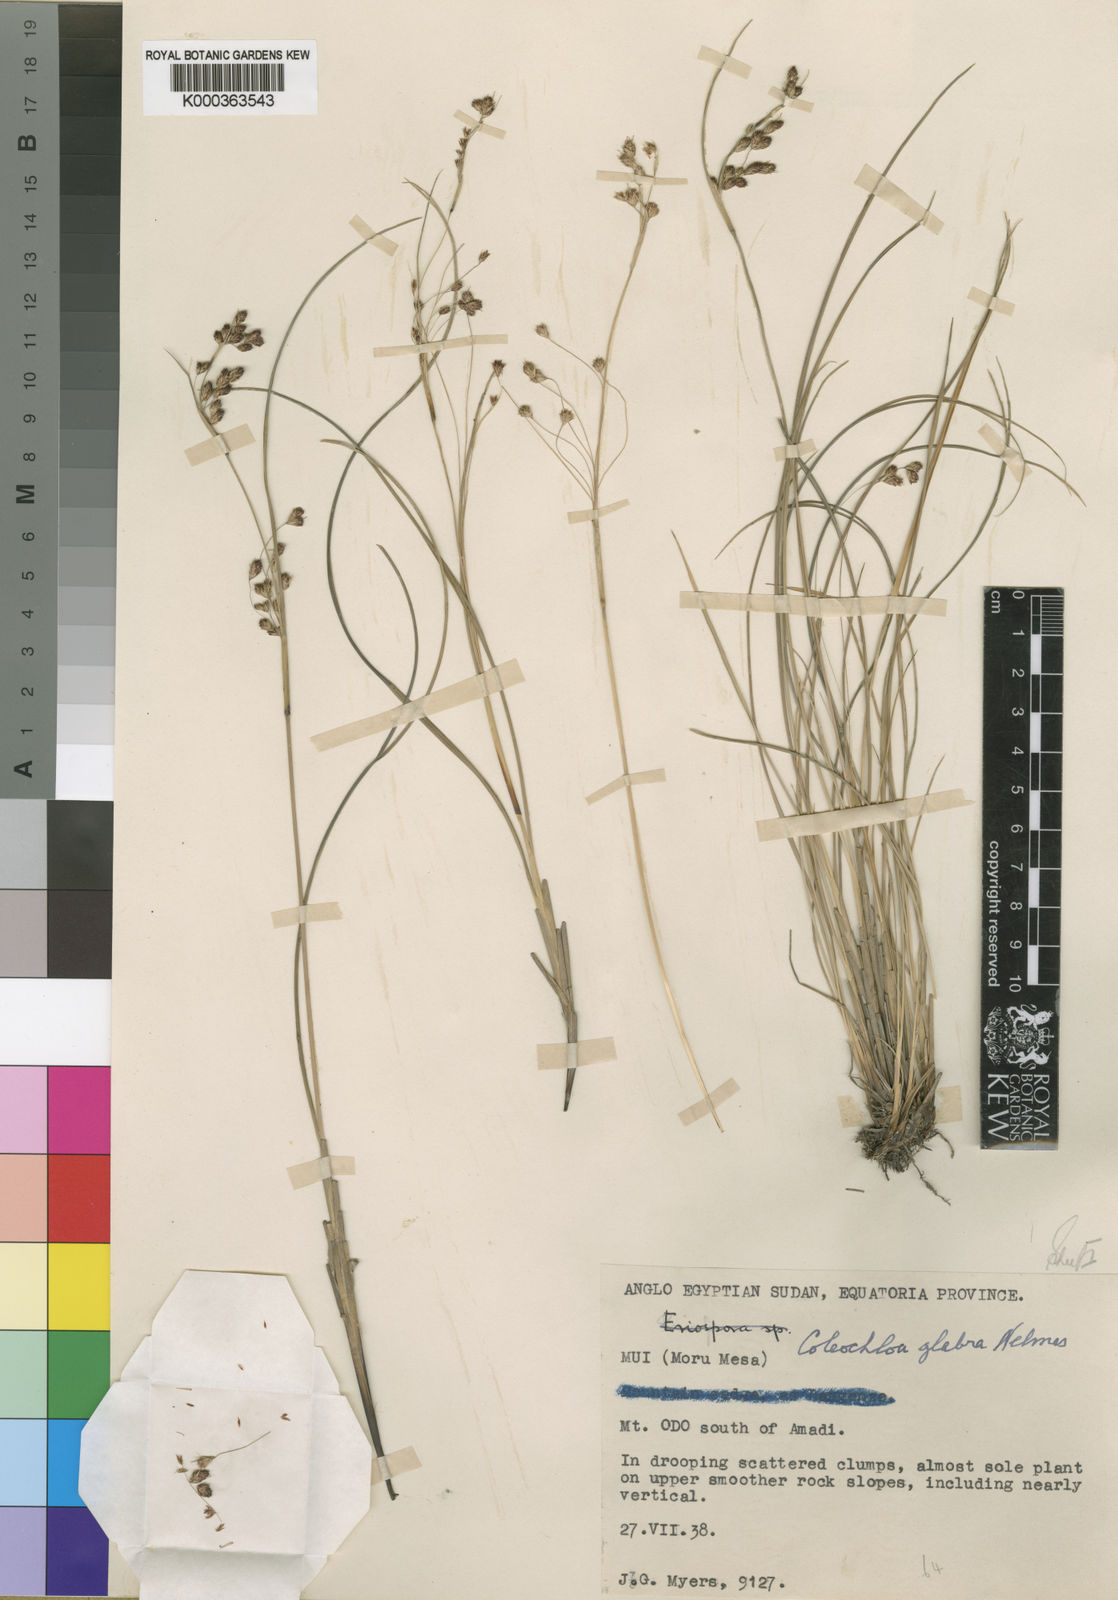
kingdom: Plantae
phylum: Tracheophyta
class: Liliopsida
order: Poales
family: Cyperaceae
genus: Coleochloa
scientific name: Coleochloa glabra
